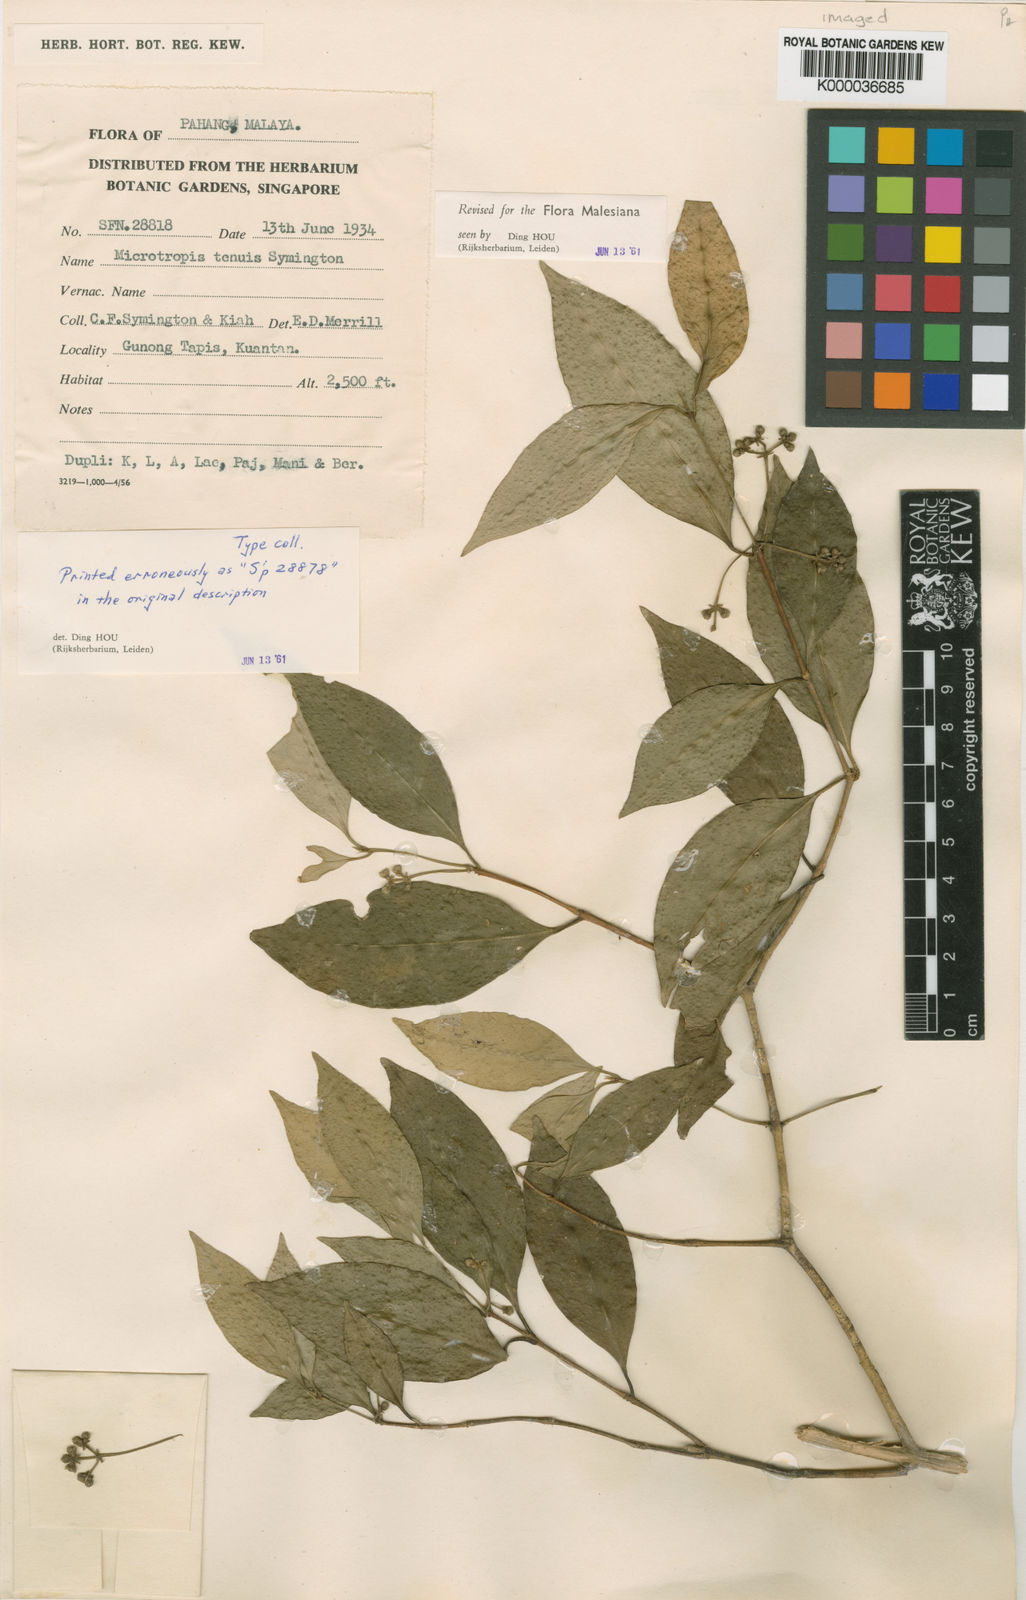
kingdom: Plantae
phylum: Tracheophyta
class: Magnoliopsida
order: Celastrales
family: Celastraceae
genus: Microtropis
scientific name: Microtropis tenuis
